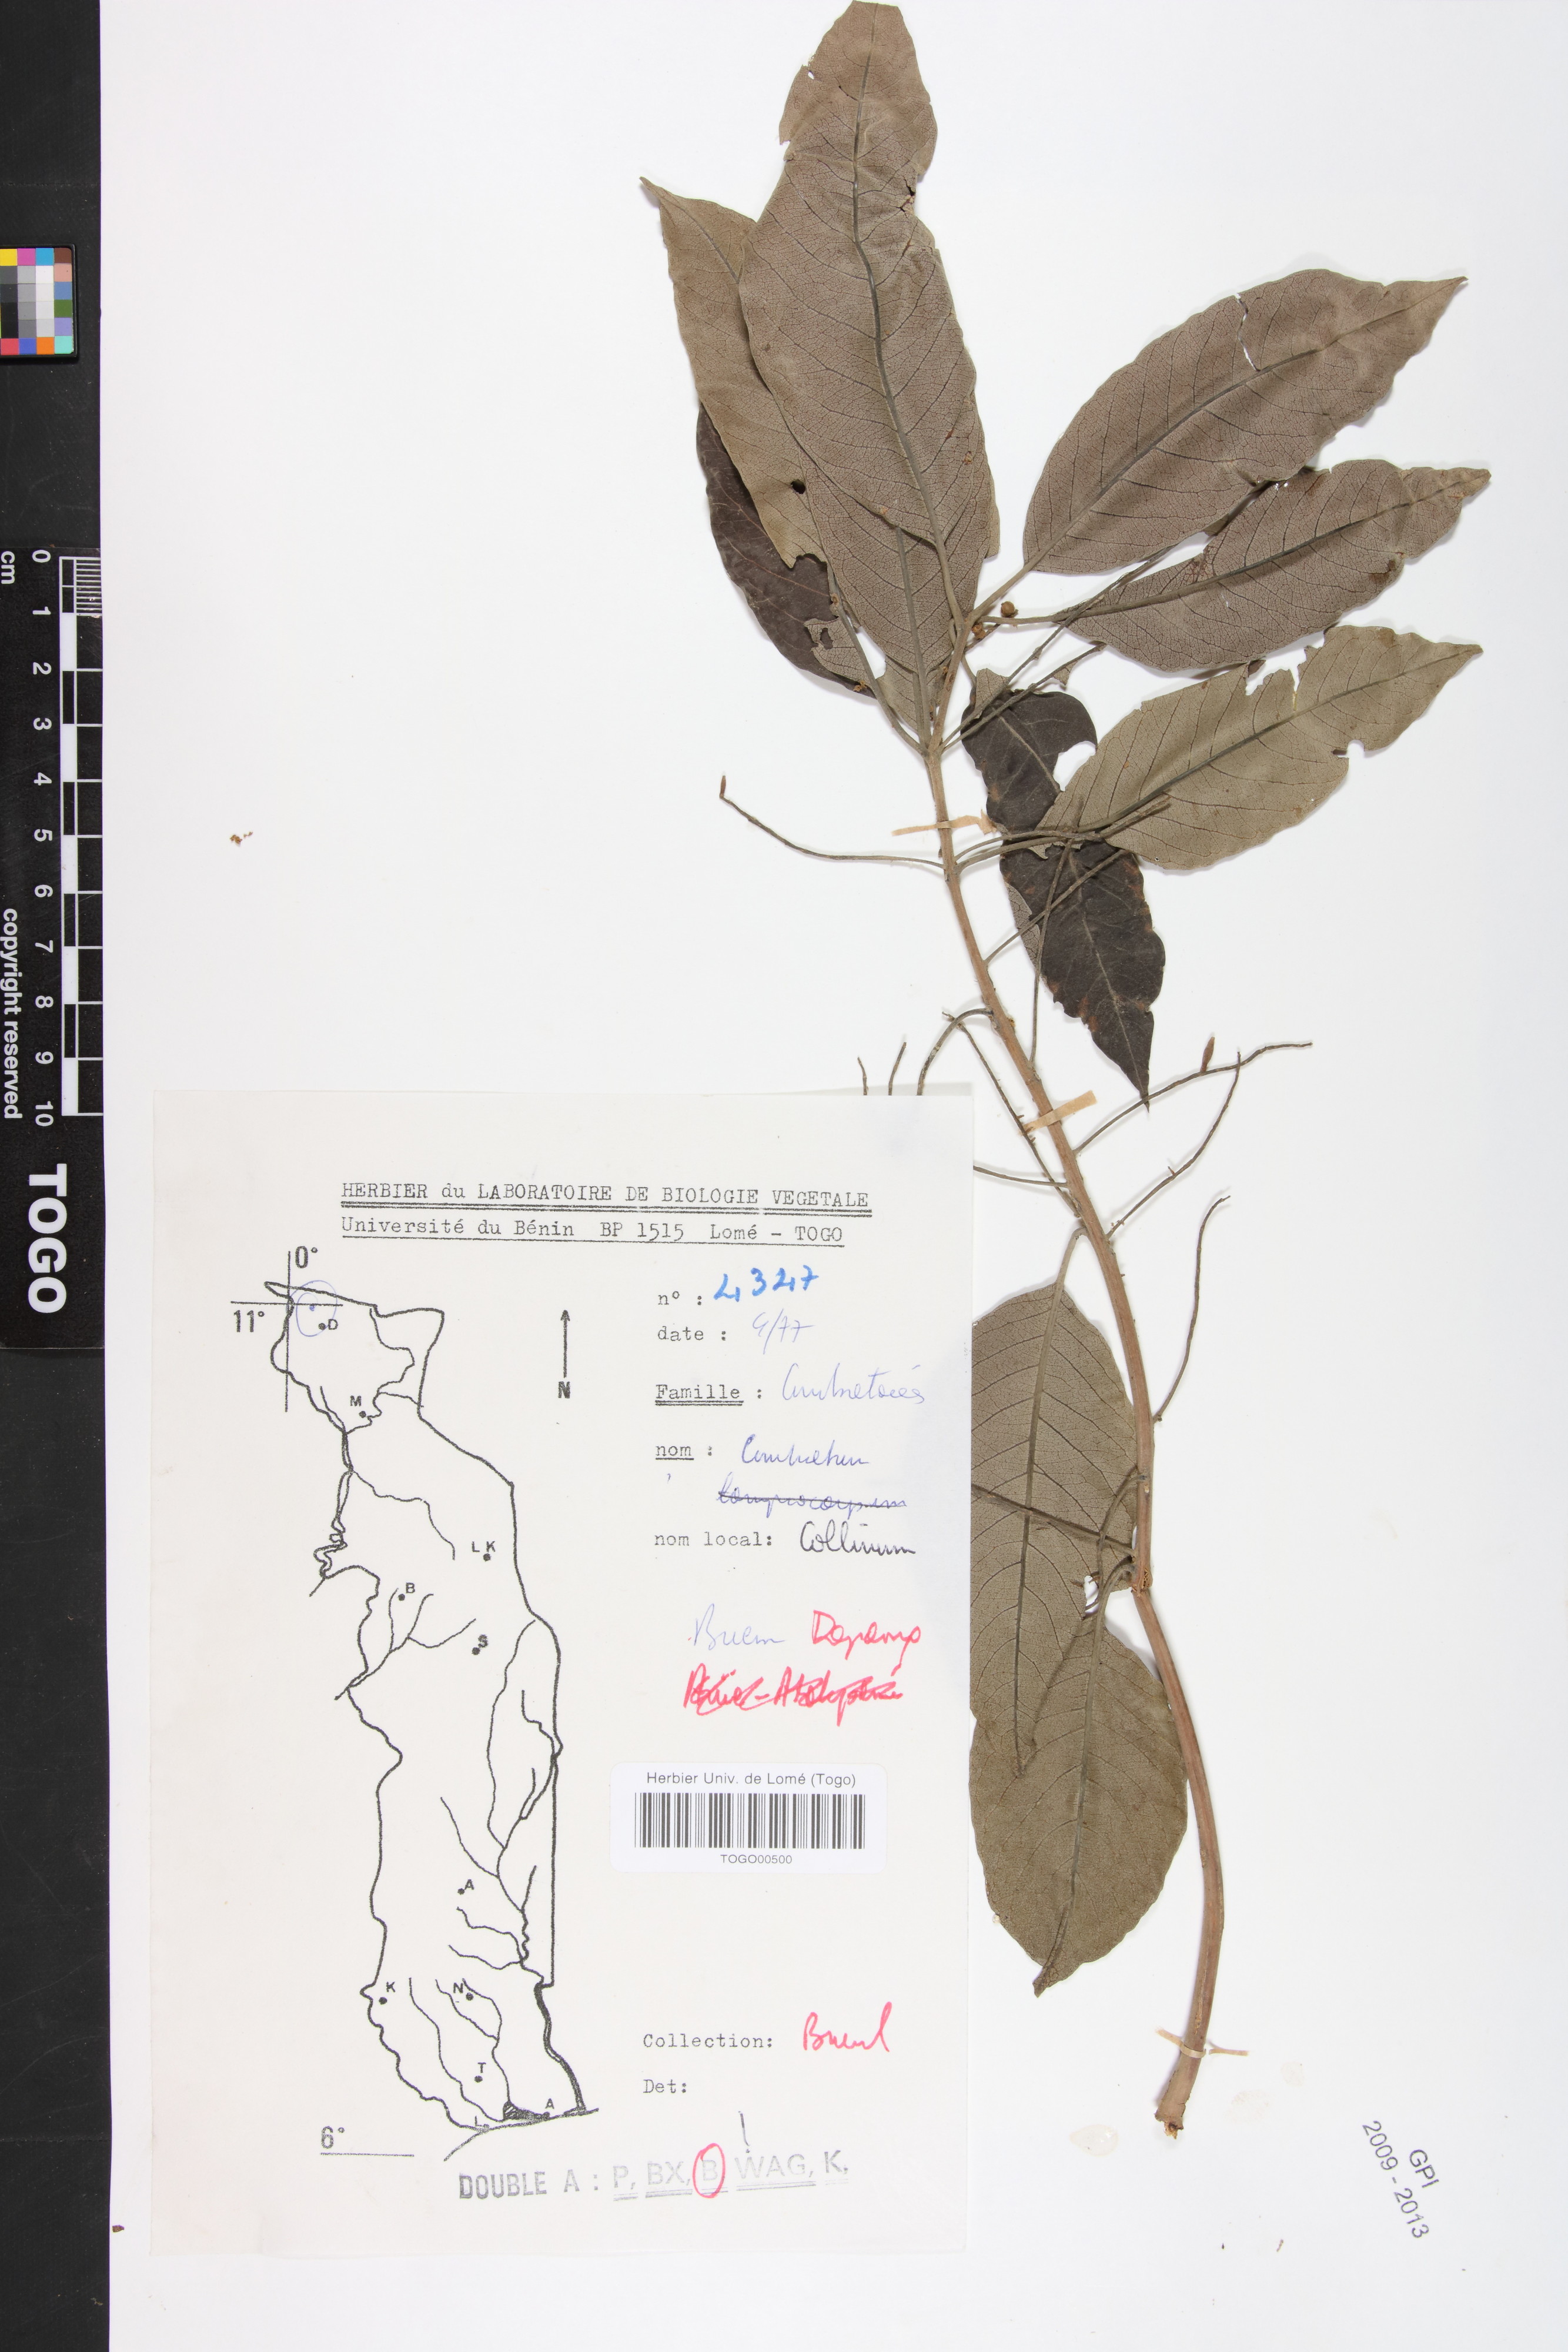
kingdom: Plantae
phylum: Tracheophyta
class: Magnoliopsida
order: Myrtales
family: Combretaceae
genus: Combretum
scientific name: Combretum collinum
